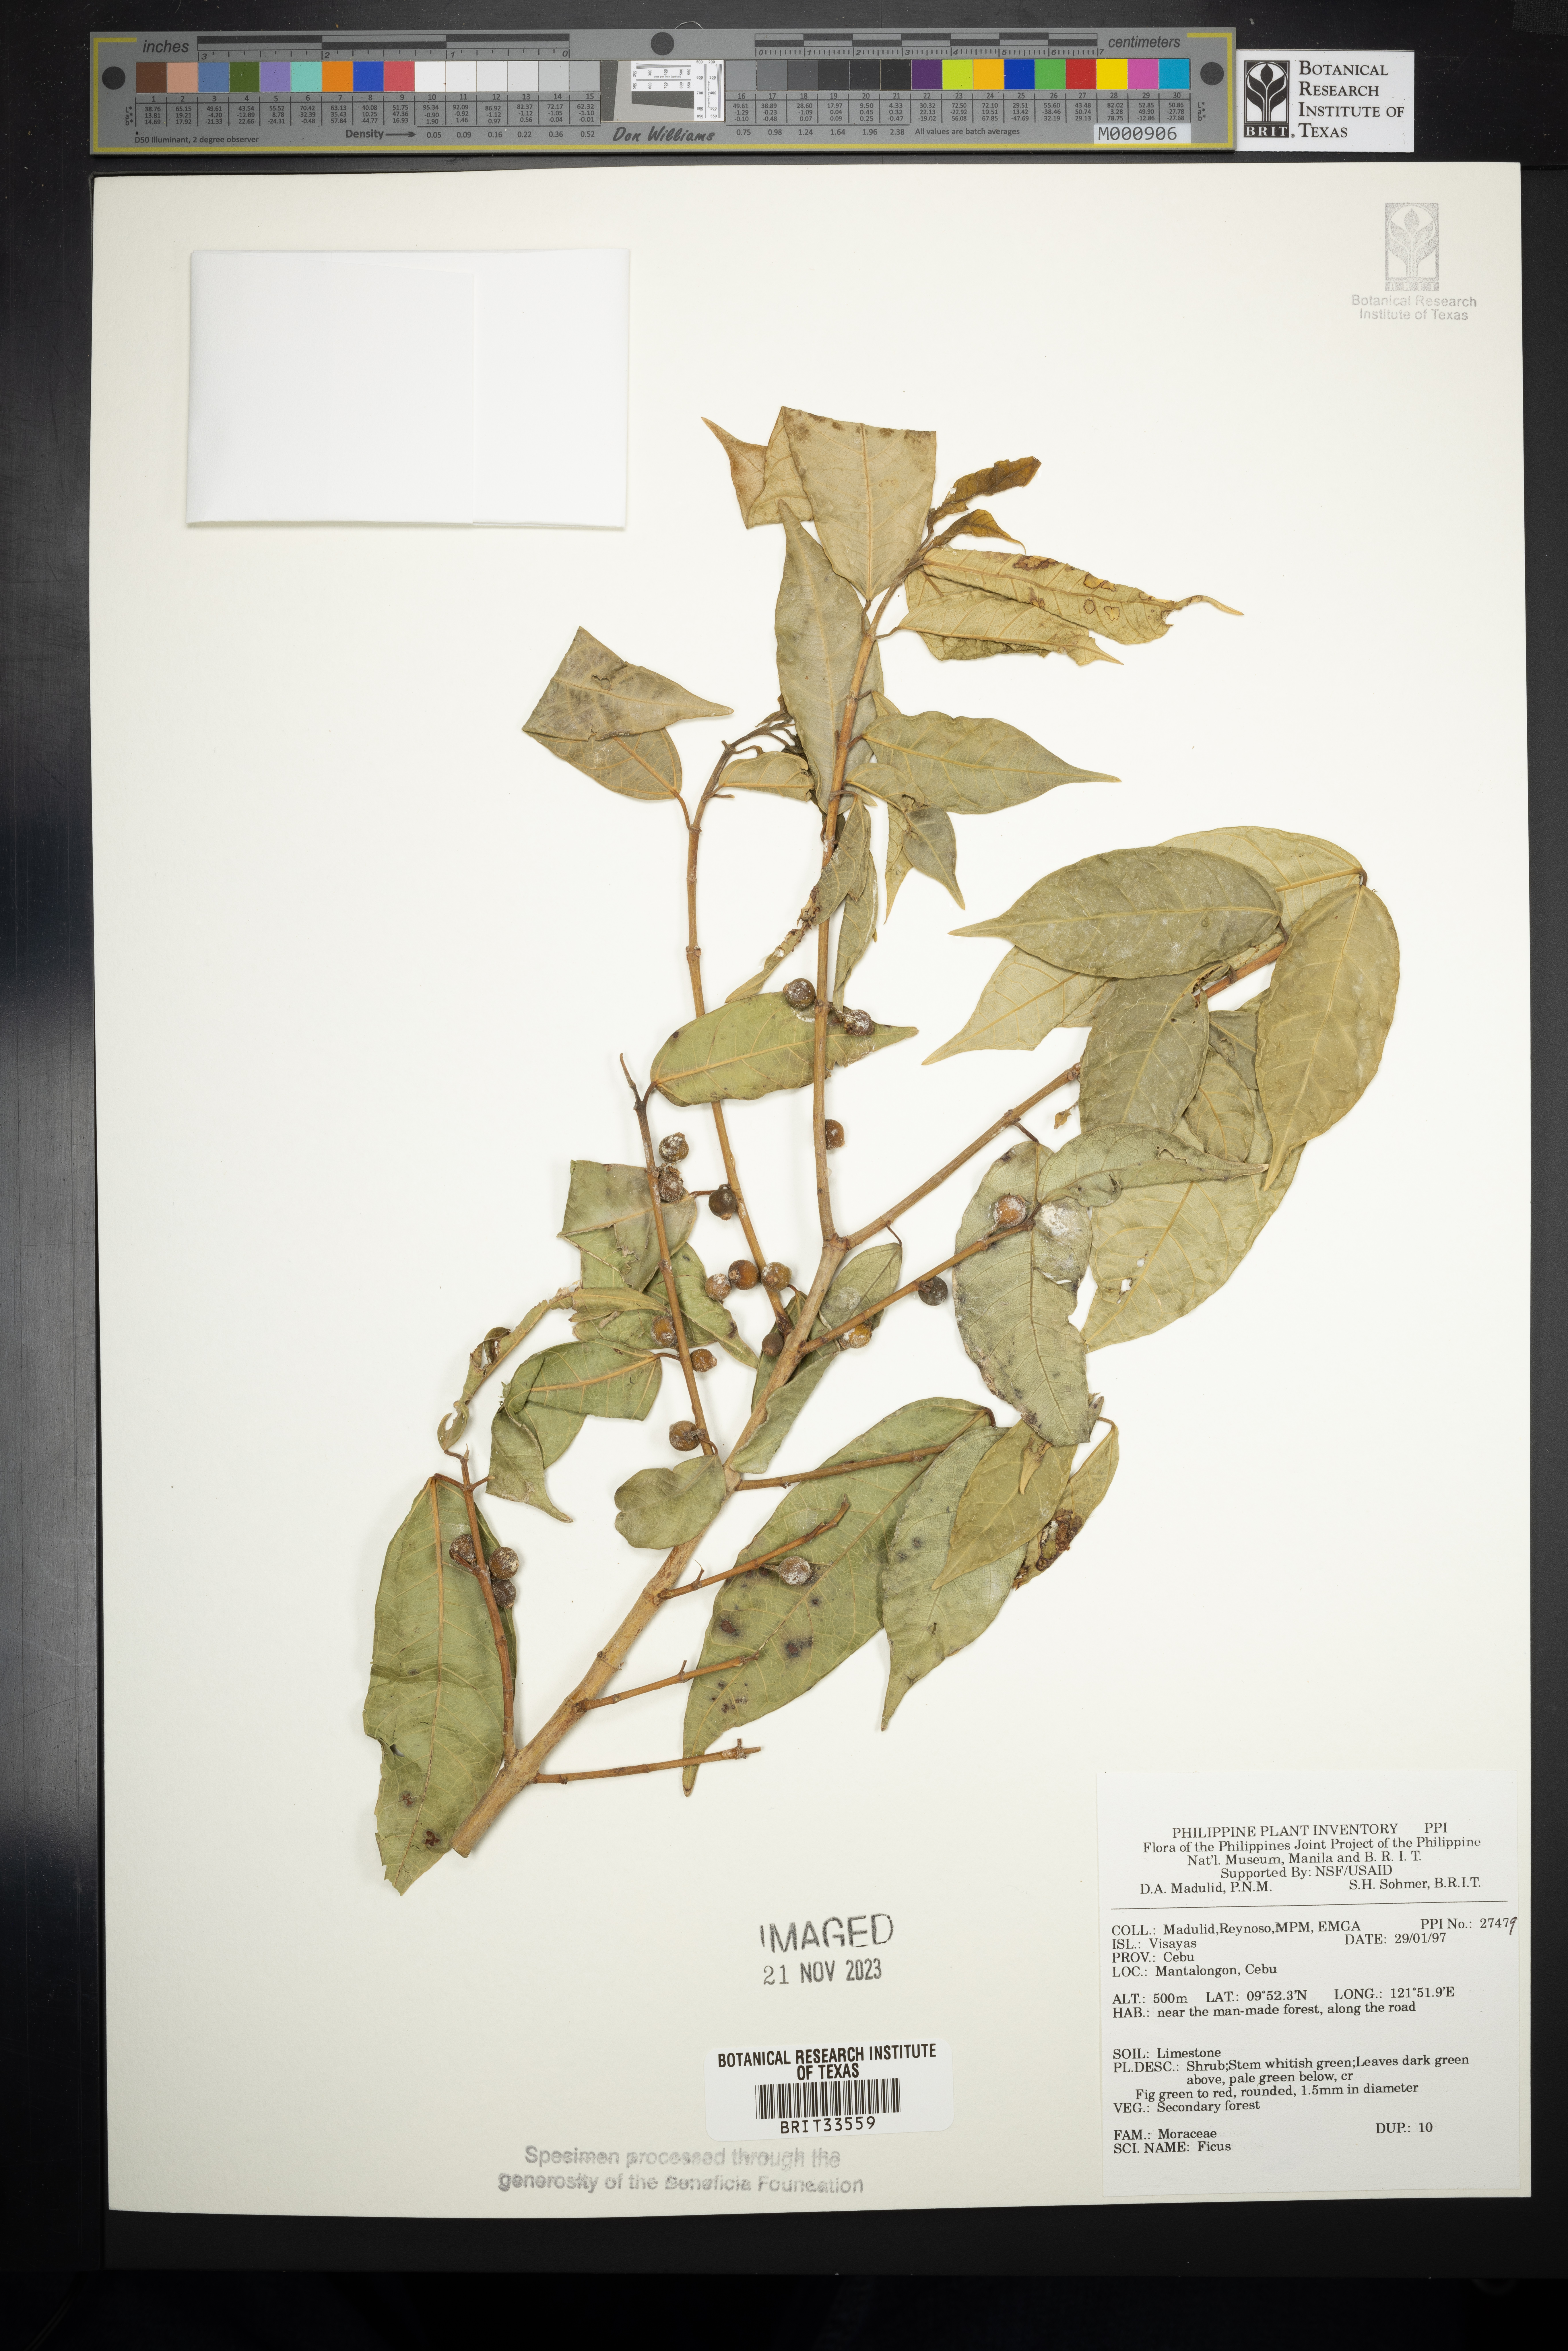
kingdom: Plantae
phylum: Tracheophyta
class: Magnoliopsida
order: Rosales
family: Moraceae
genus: Ficus
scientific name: Ficus
